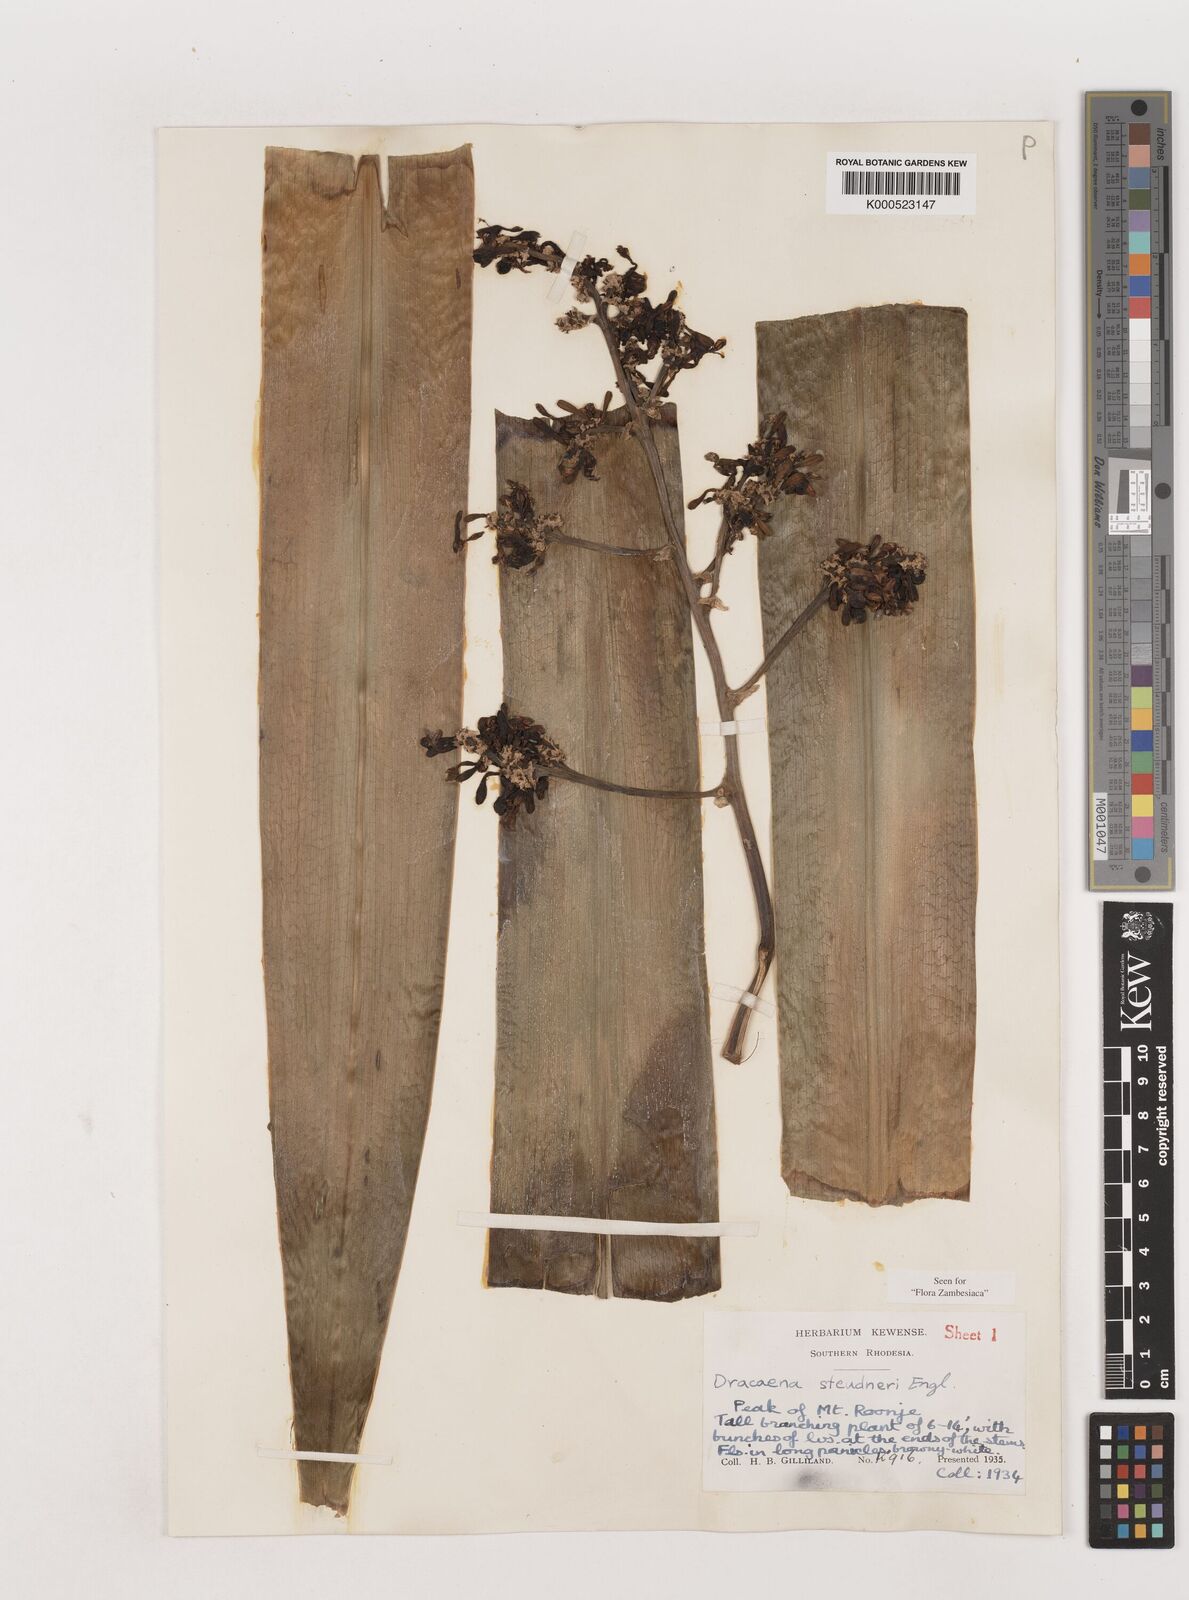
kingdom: Plantae
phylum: Tracheophyta
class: Liliopsida
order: Asparagales
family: Asparagaceae
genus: Dracaena
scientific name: Dracaena steudneri
